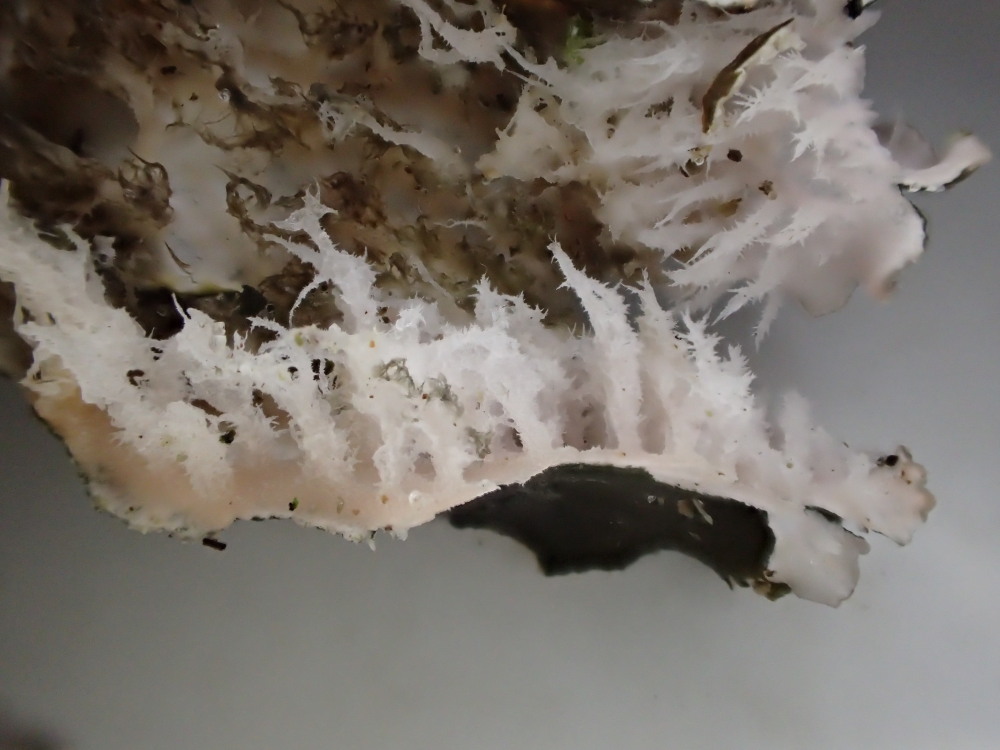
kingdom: Fungi
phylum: Ascomycota
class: Lecanoromycetes
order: Peltigerales
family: Peltigeraceae
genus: Peltigera
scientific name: Peltigera canina
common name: hunde-skjoldlav
